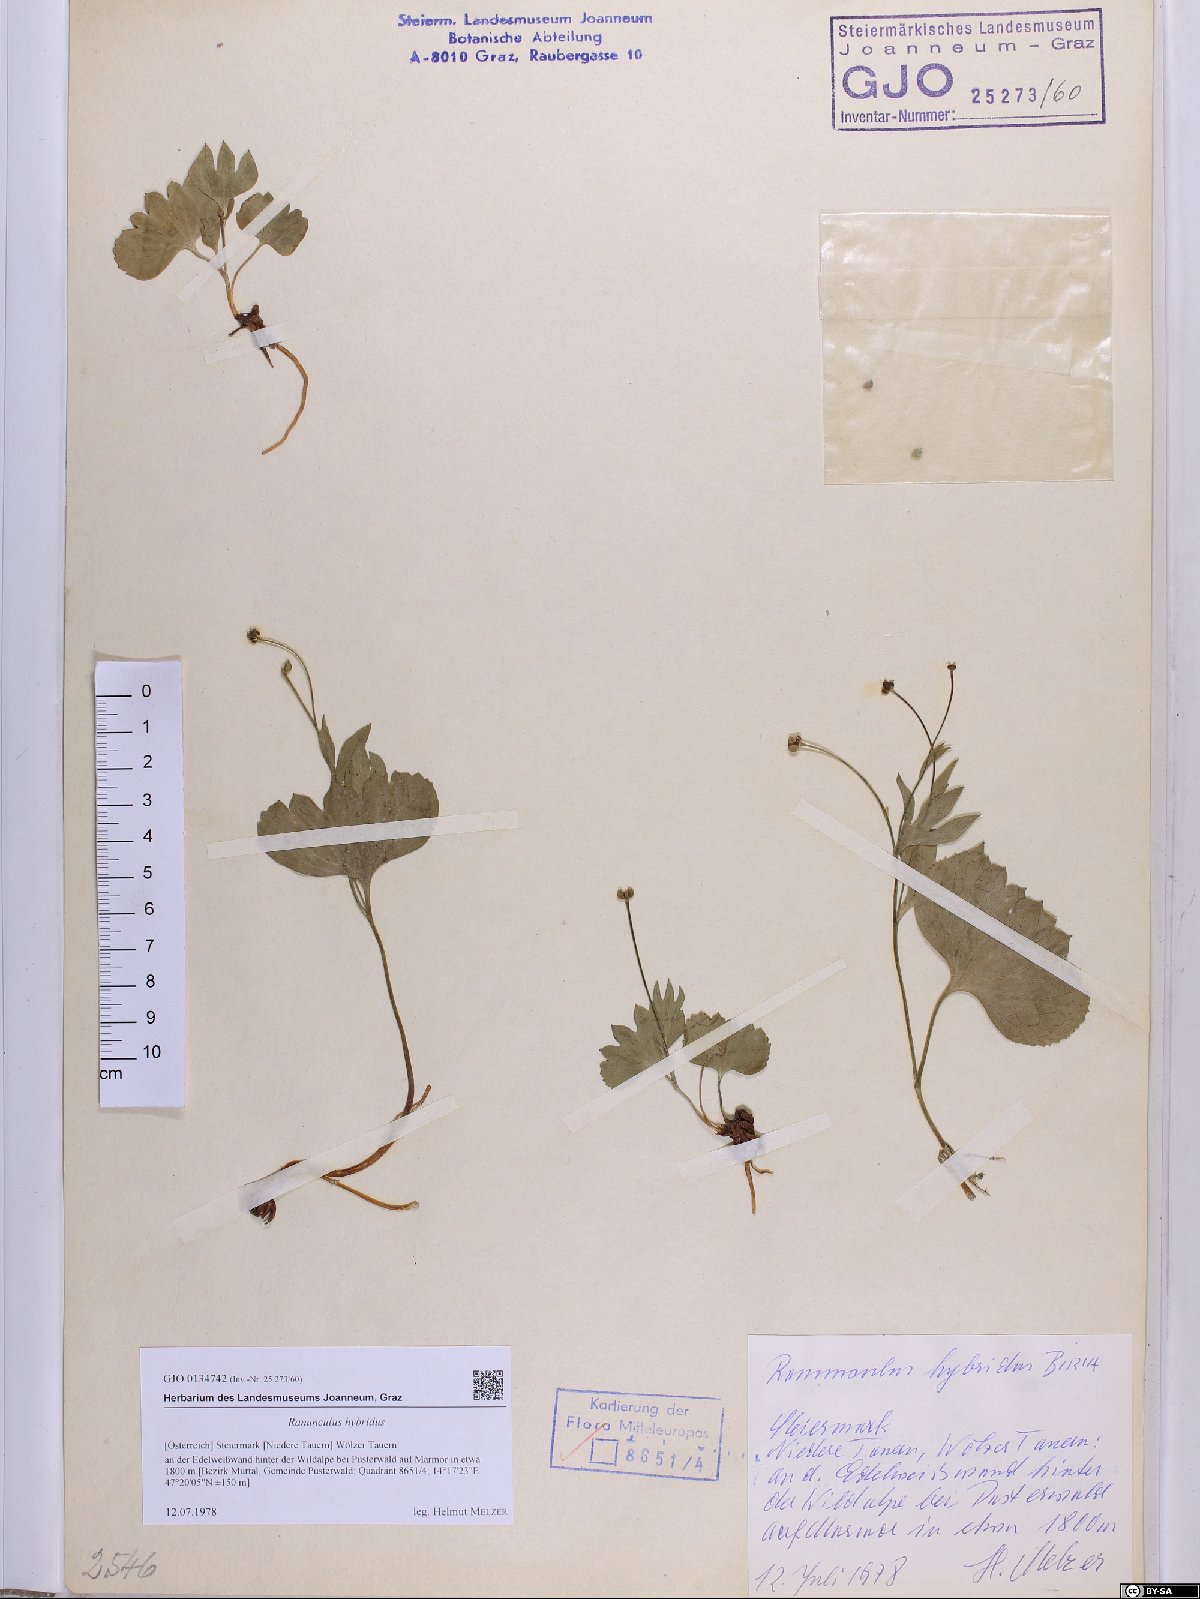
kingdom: Plantae
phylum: Tracheophyta
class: Magnoliopsida
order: Ranunculales
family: Ranunculaceae
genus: Ranunculus
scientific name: Ranunculus hybridus
